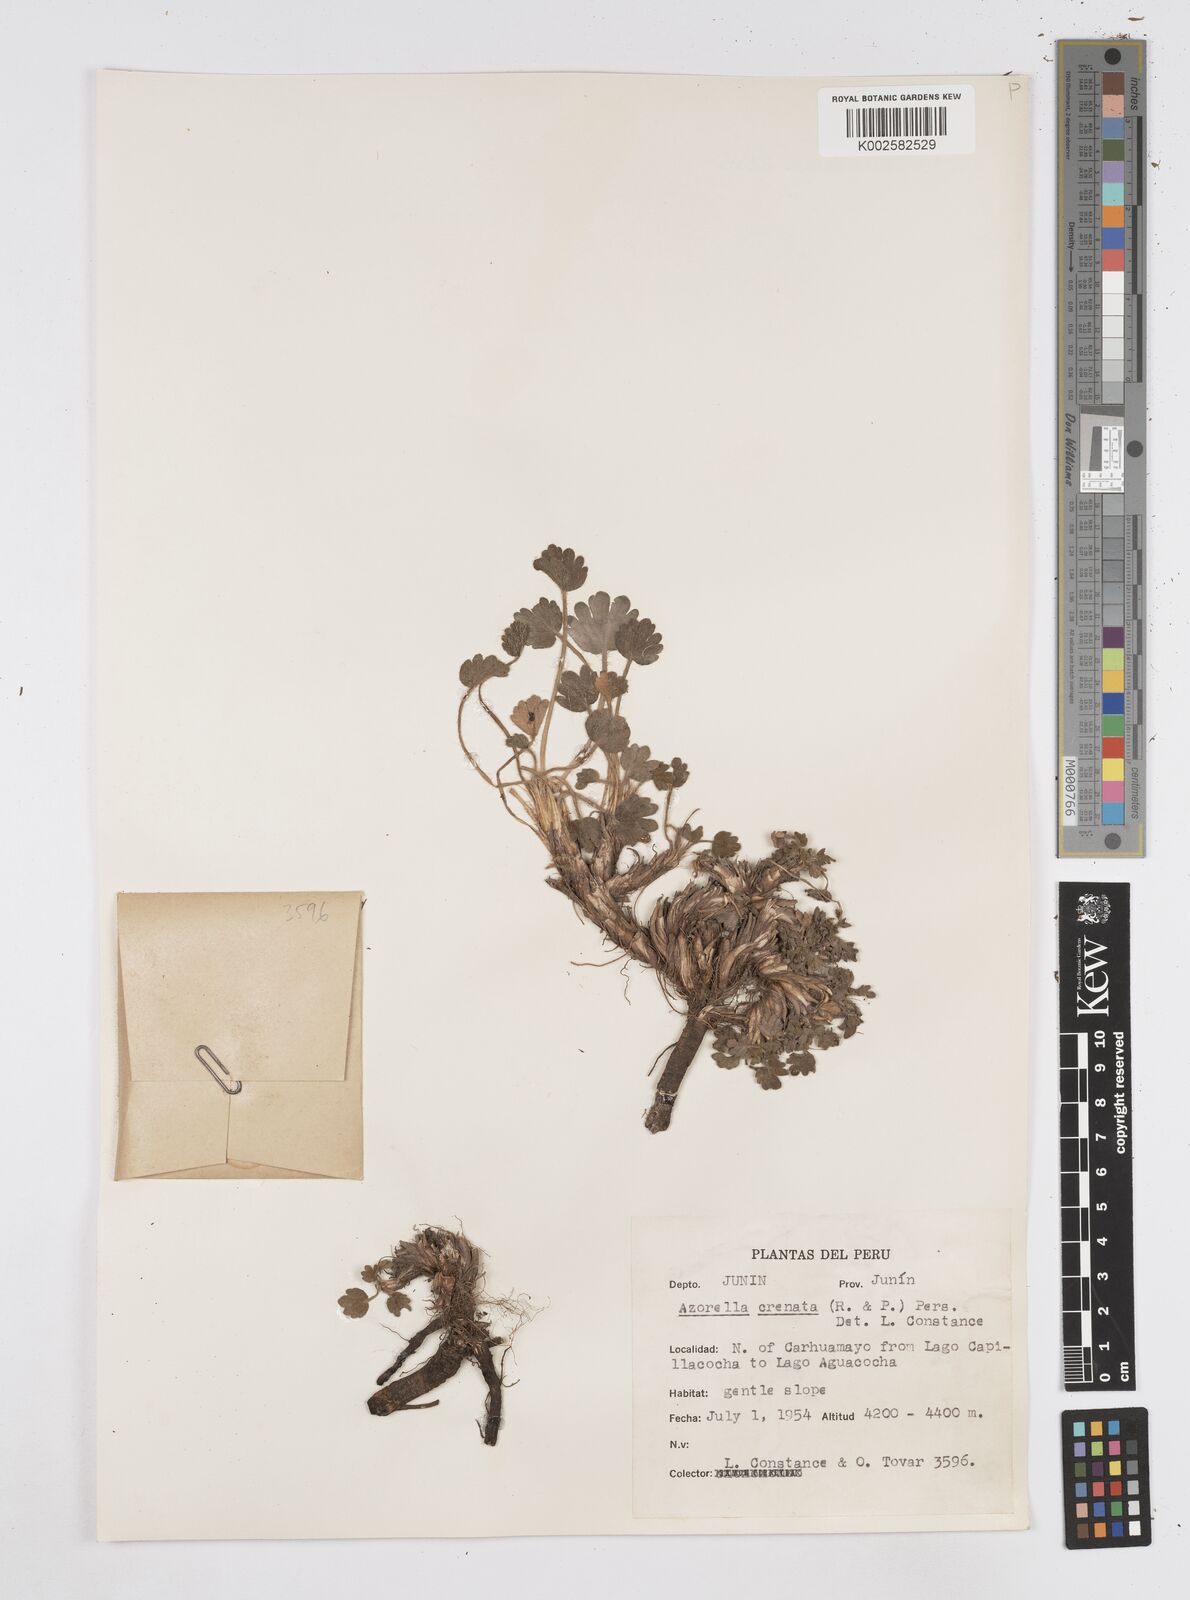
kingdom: Plantae
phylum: Tracheophyta
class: Magnoliopsida
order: Apiales
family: Apiaceae
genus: Azorella
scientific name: Azorella crenata
